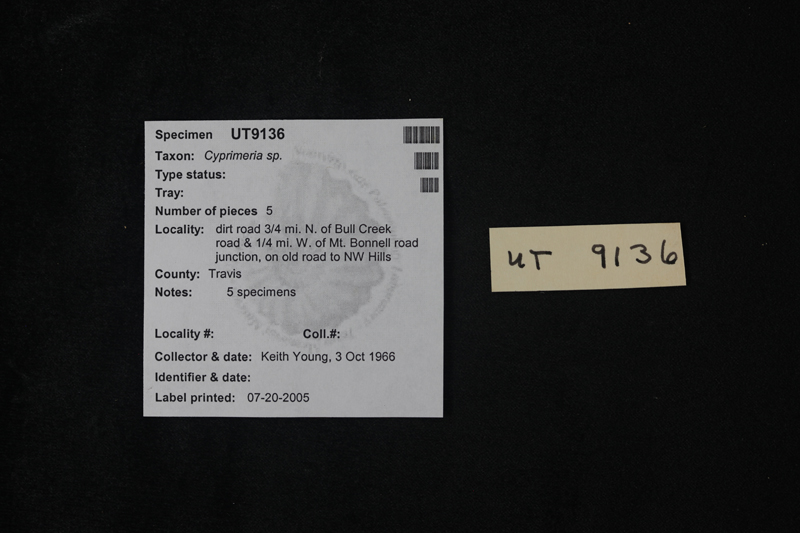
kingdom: Animalia
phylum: Mollusca
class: Bivalvia
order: Venerida
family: Veneridae
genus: Cyprimeria
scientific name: Cyprimeria
